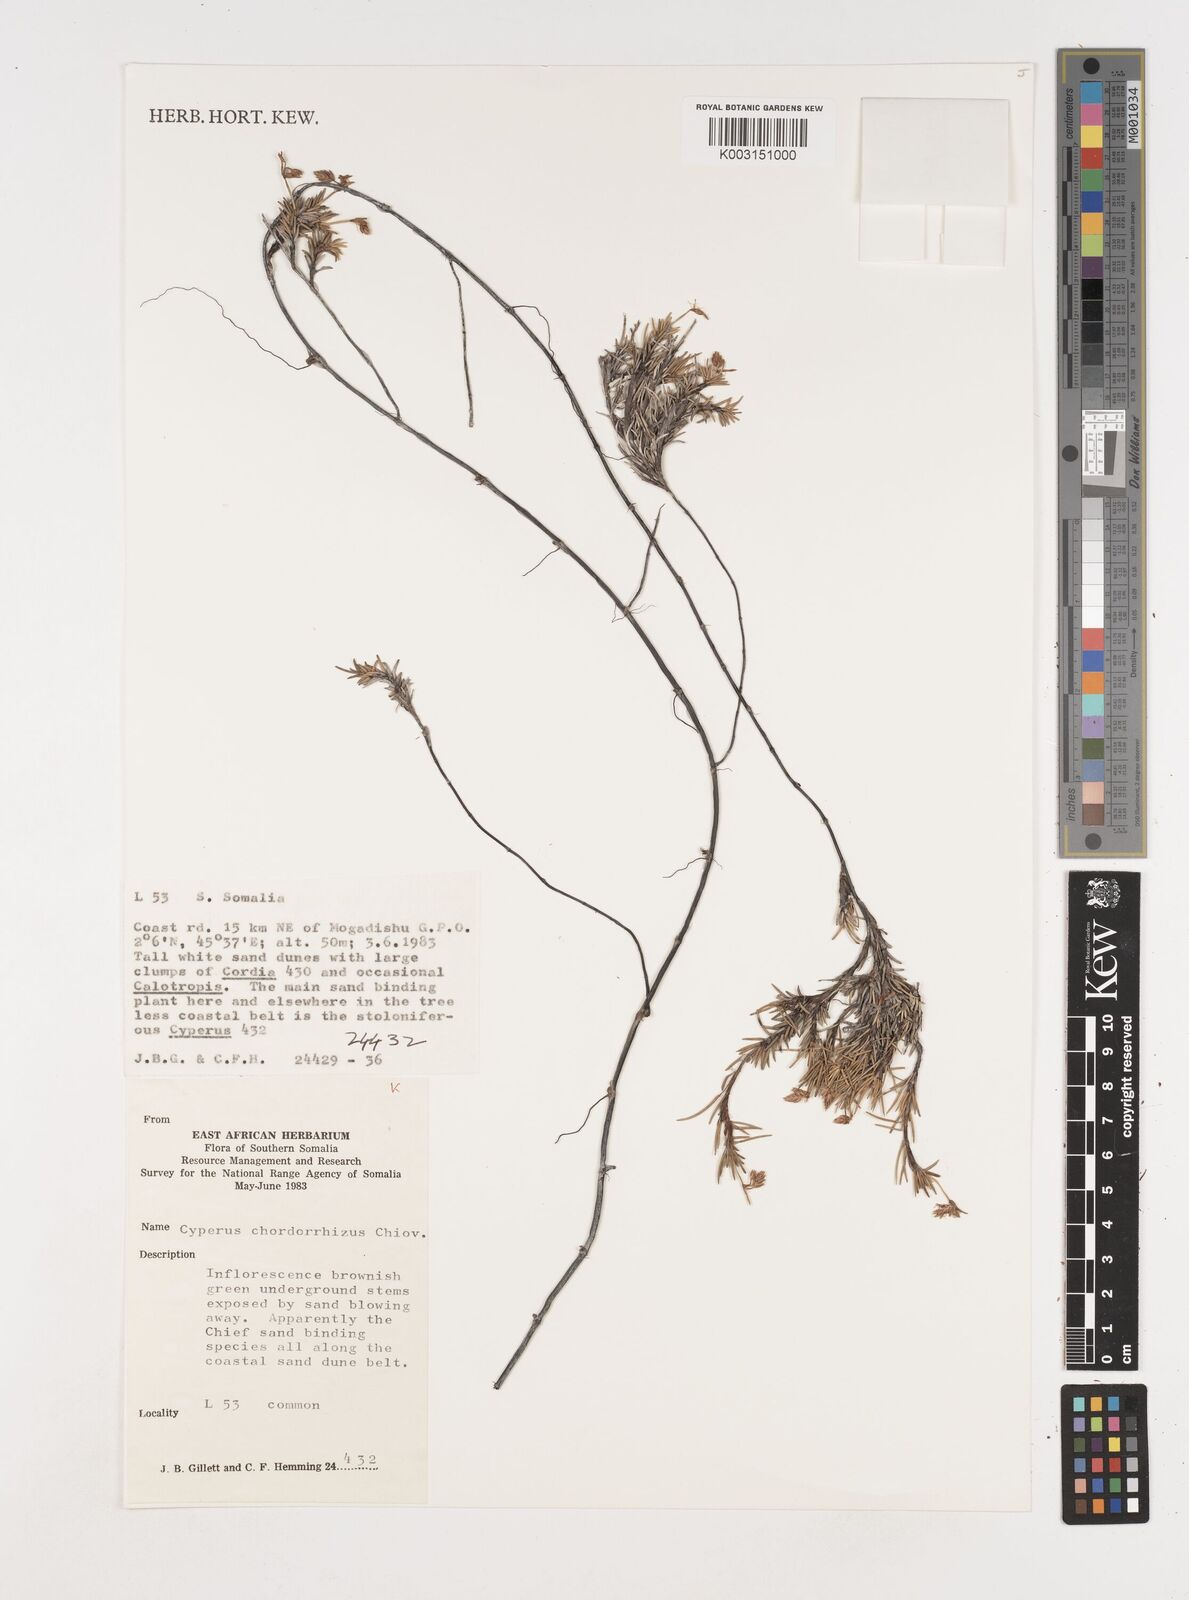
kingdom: Plantae
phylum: Tracheophyta
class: Liliopsida
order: Poales
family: Cyperaceae
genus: Cyperus
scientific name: Cyperus chordorrhizus
